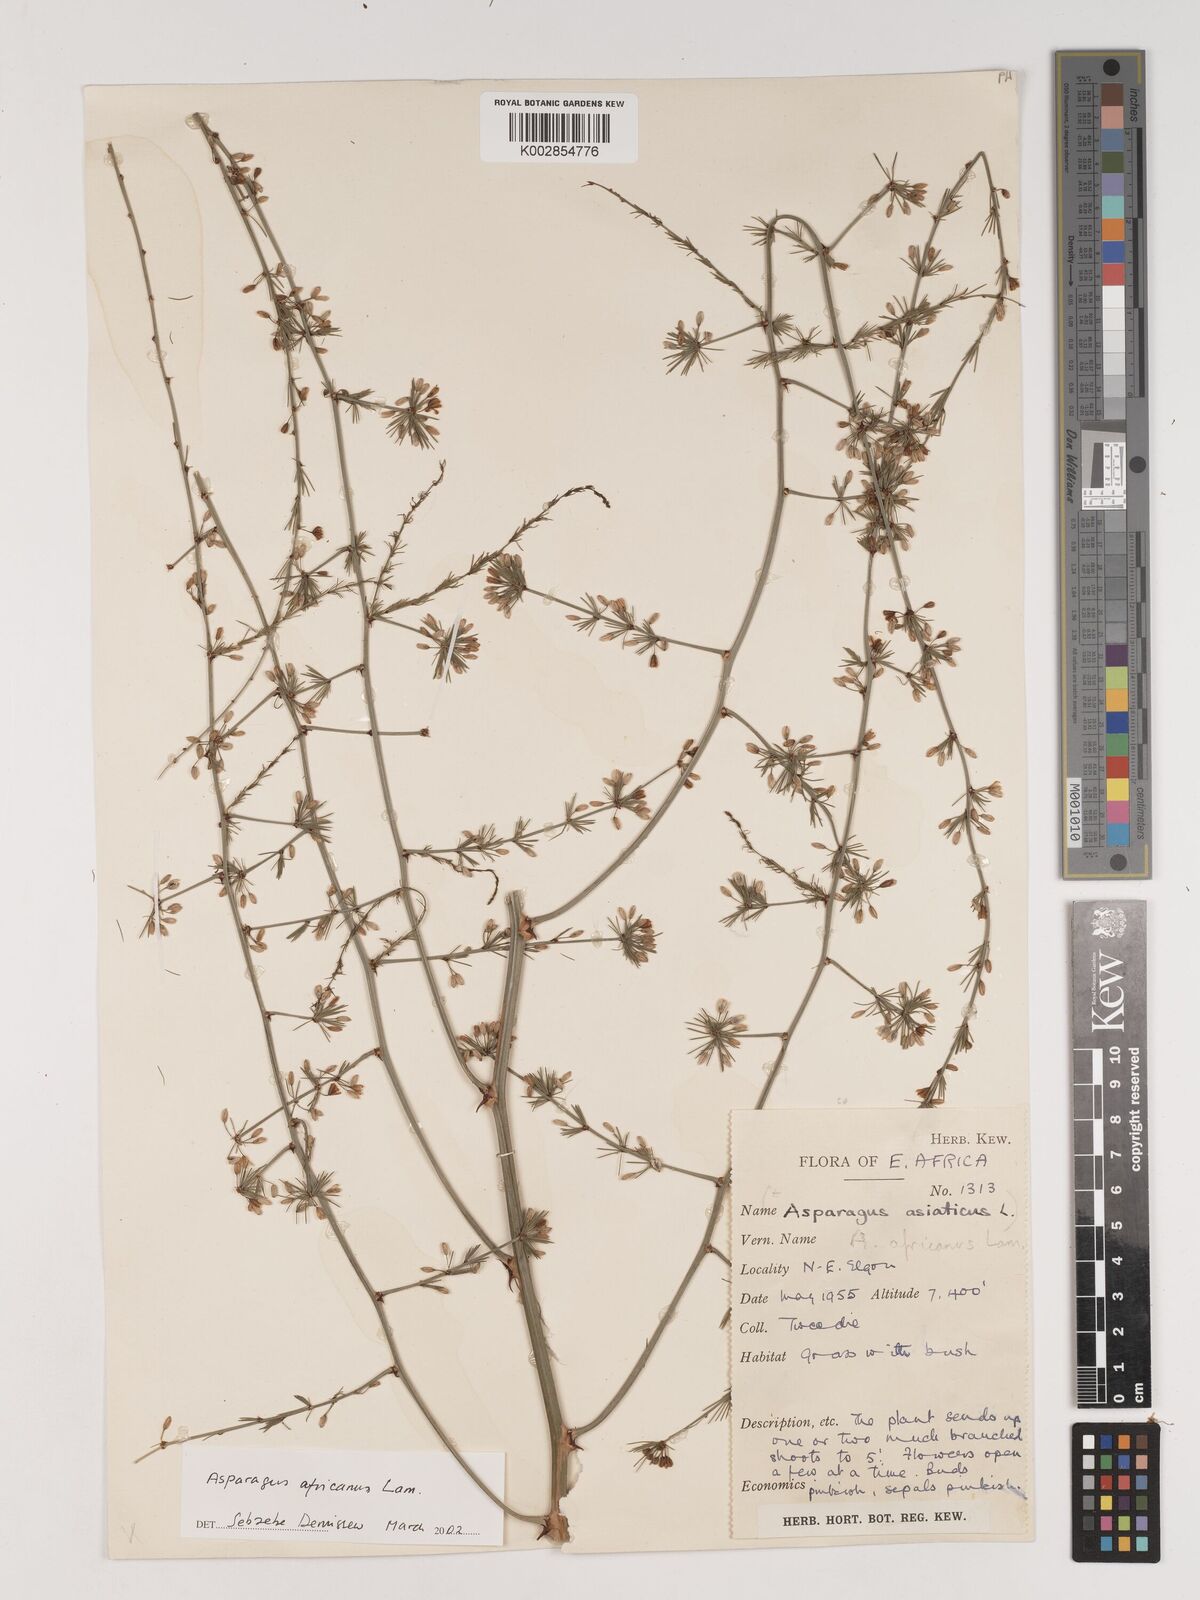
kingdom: Plantae
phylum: Tracheophyta
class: Liliopsida
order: Asparagales
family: Asparagaceae
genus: Asparagus
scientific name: Asparagus africanus
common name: Asparagus-fern
